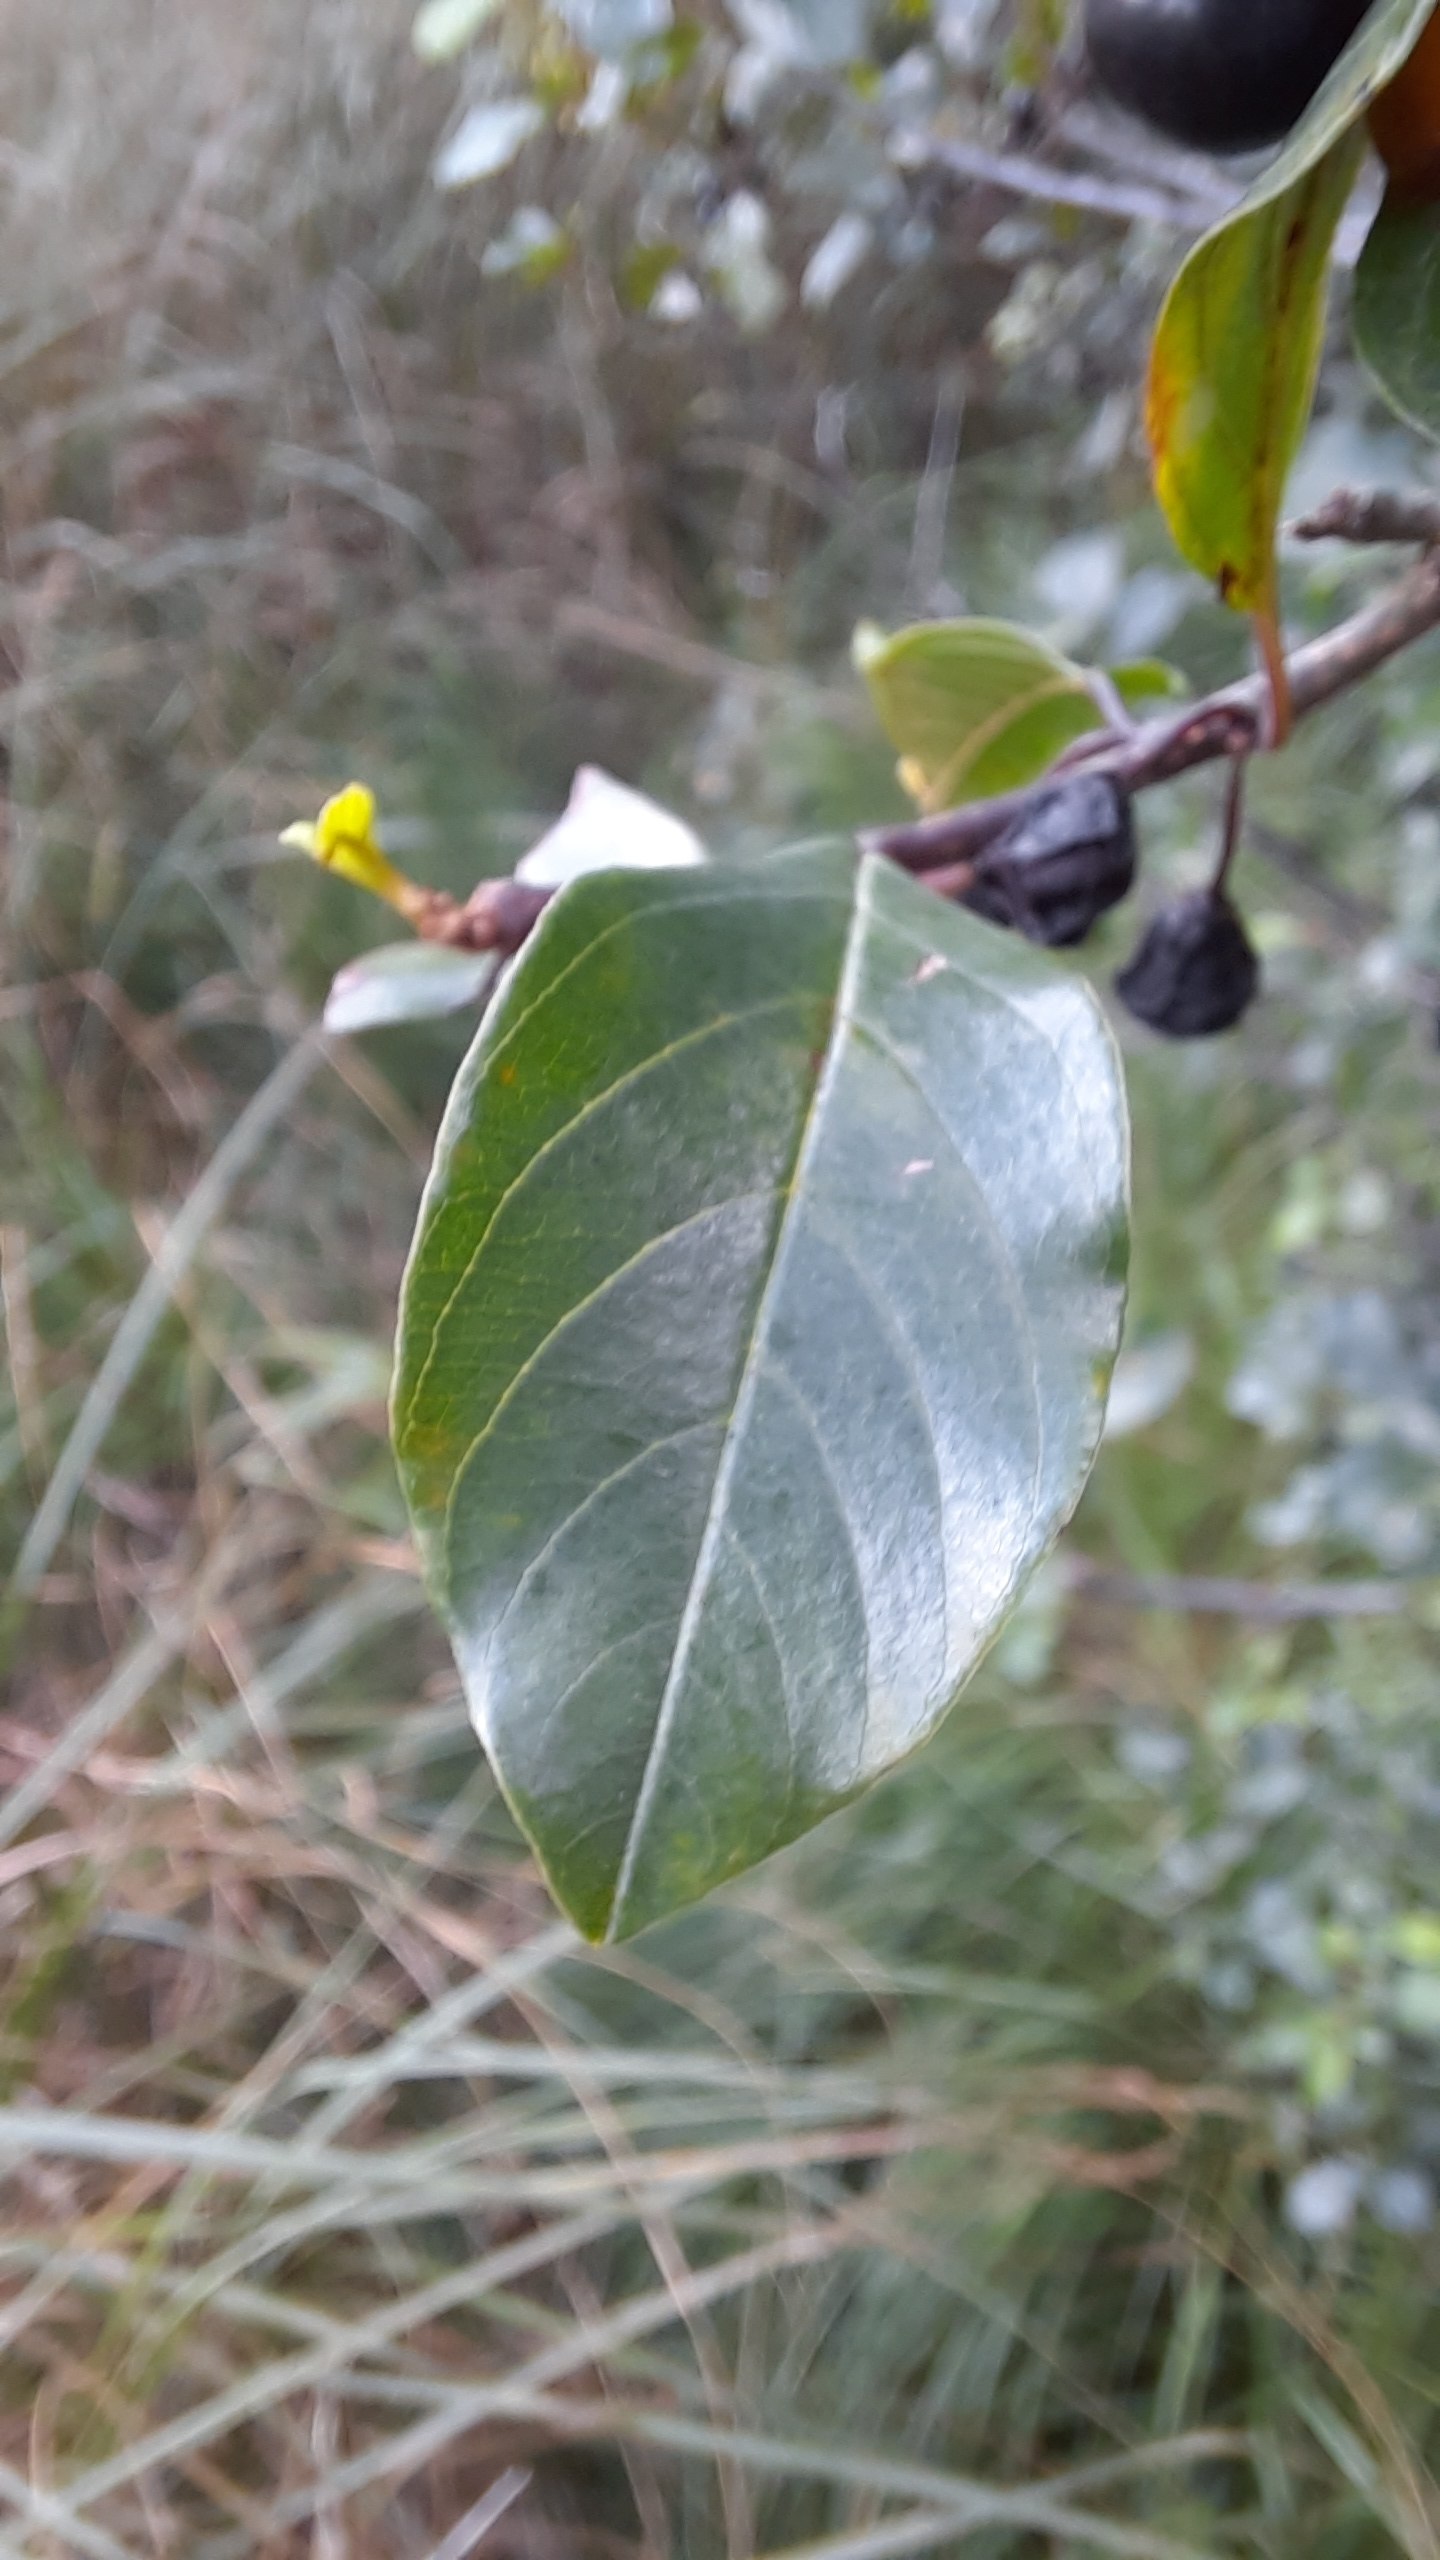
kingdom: Plantae
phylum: Tracheophyta
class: Magnoliopsida
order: Rosales
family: Rhamnaceae
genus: Frangula
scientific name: Frangula alnus
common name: Tørst
